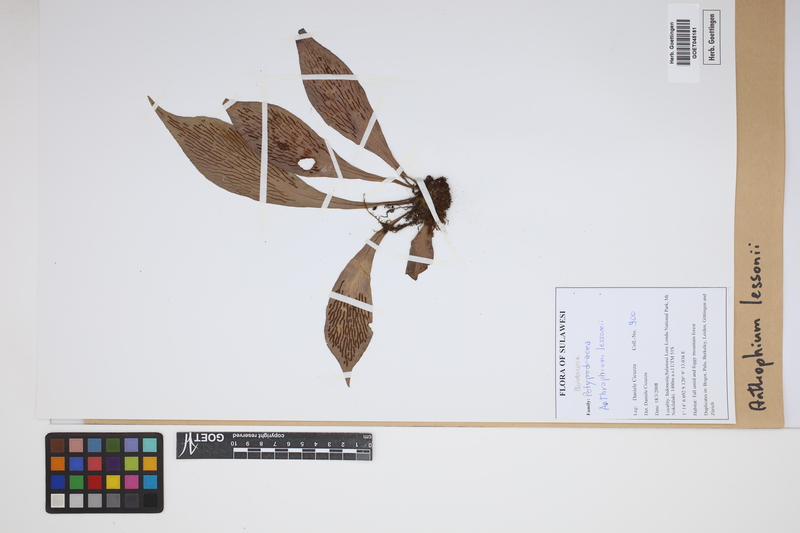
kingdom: Plantae
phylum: Tracheophyta
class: Polypodiopsida
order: Polypodiales
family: Pteridaceae
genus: Antrophyum
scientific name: Antrophyum plantagineum
